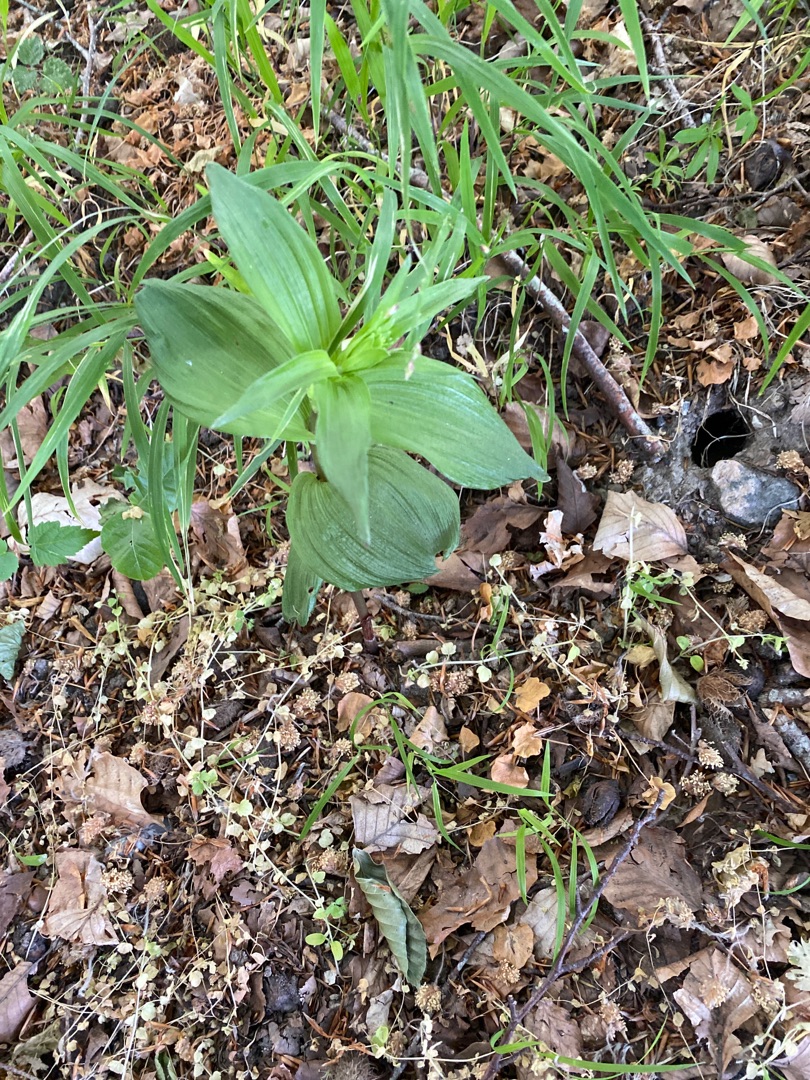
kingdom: Plantae
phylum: Tracheophyta
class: Liliopsida
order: Asparagales
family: Orchidaceae
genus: Epipactis
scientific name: Epipactis helleborine
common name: Skov-hullæbe
